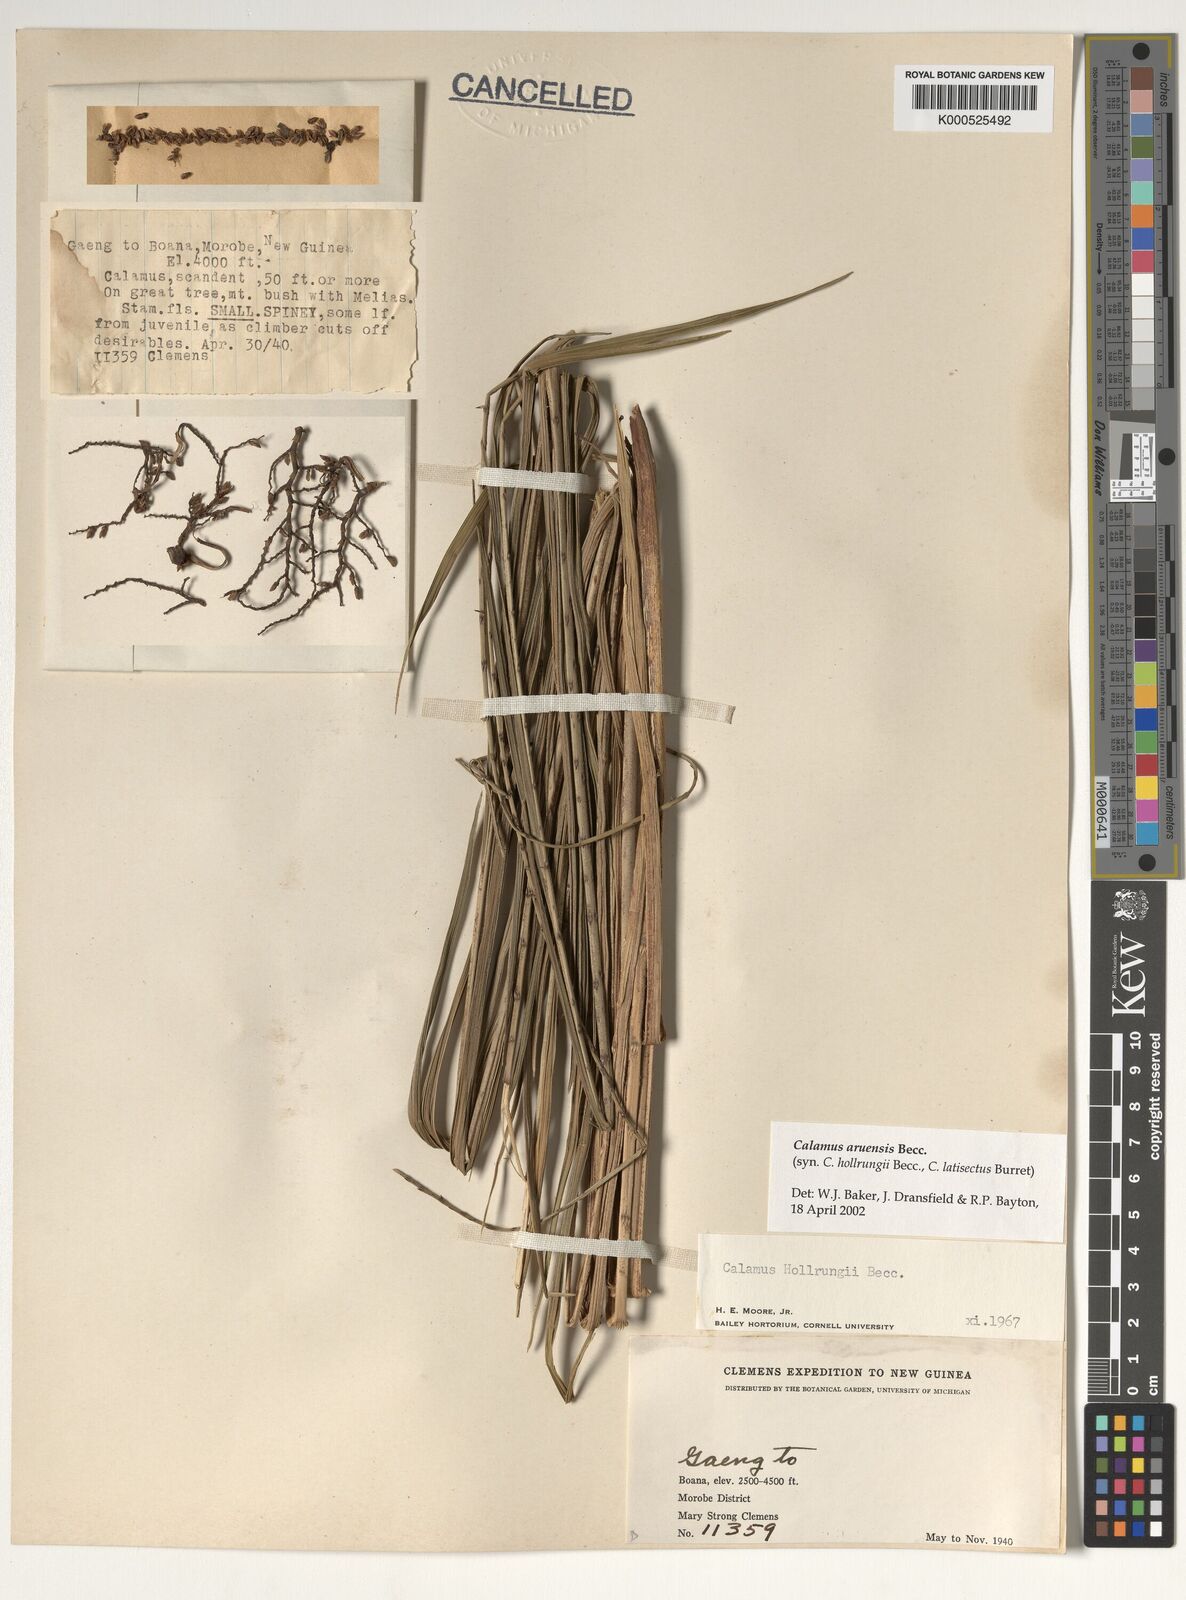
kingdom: Plantae
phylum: Tracheophyta
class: Liliopsida
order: Arecales
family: Arecaceae
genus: Calamus
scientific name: Calamus aruensis
